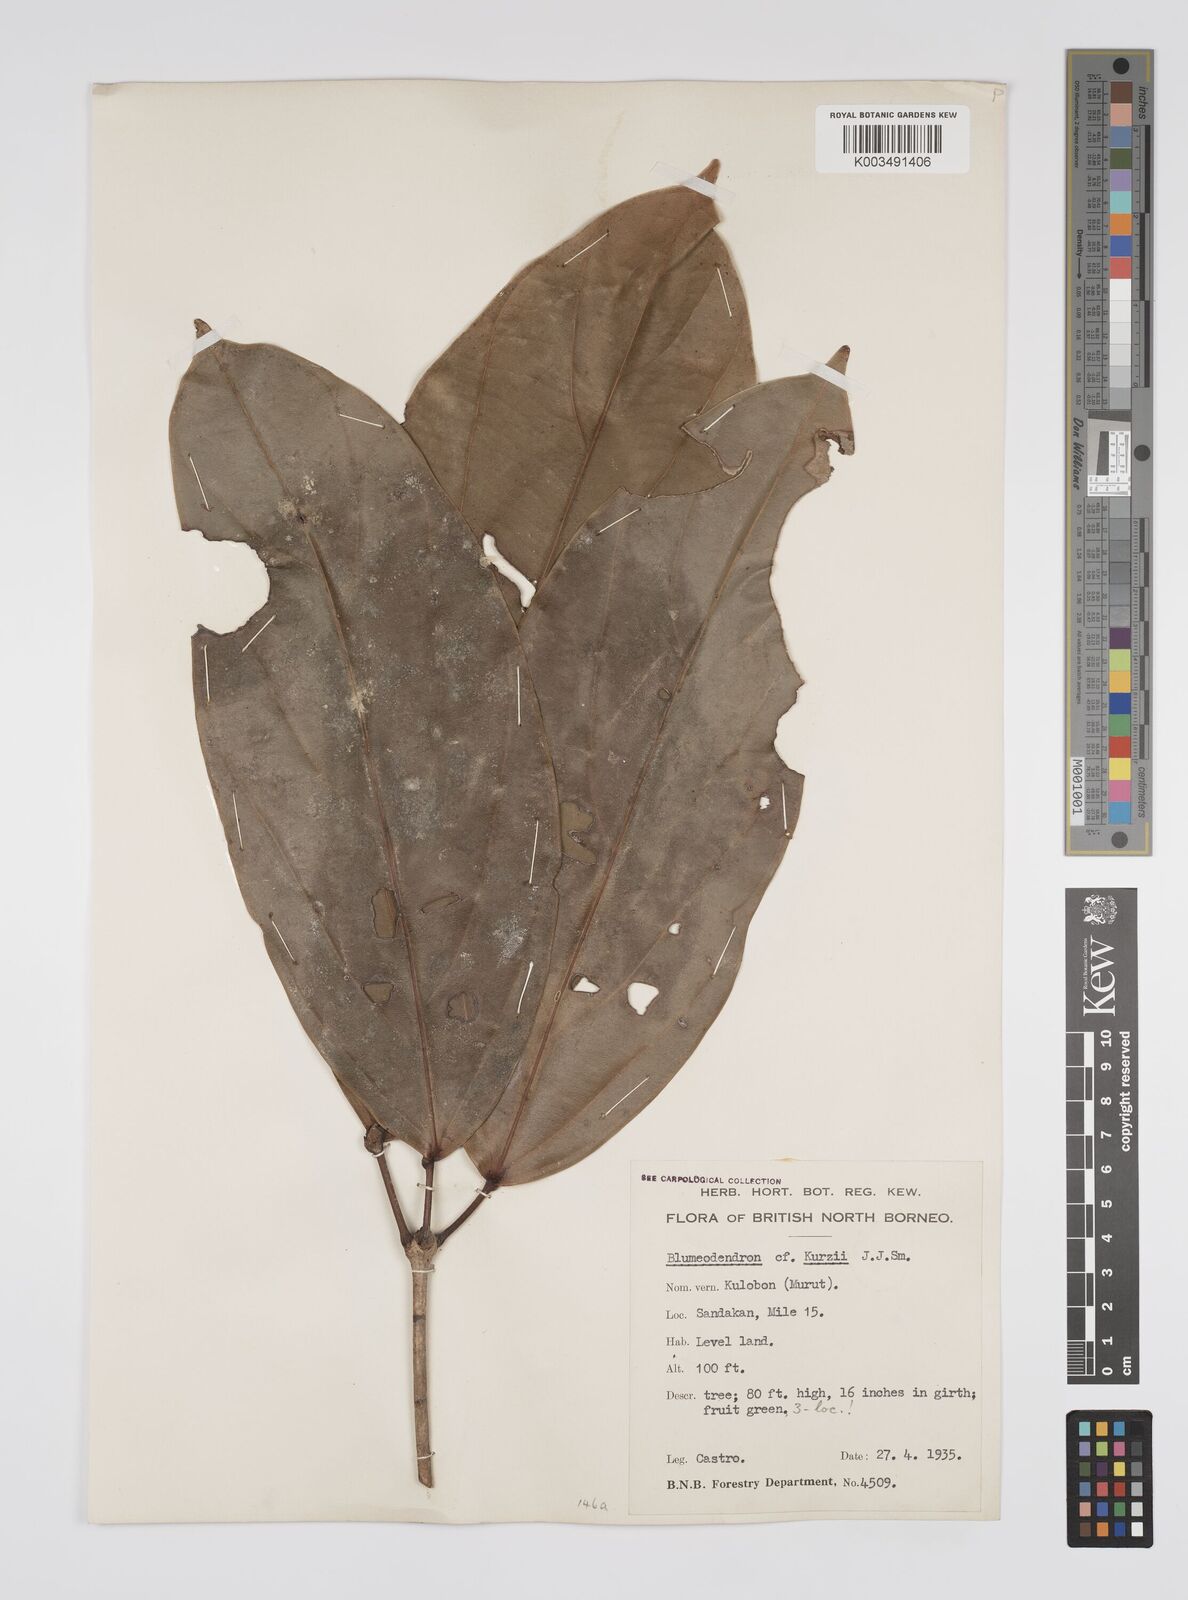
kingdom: Plantae
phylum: Tracheophyta
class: Magnoliopsida
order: Malpighiales
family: Euphorbiaceae
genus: Blumeodendron
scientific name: Blumeodendron kurzii
